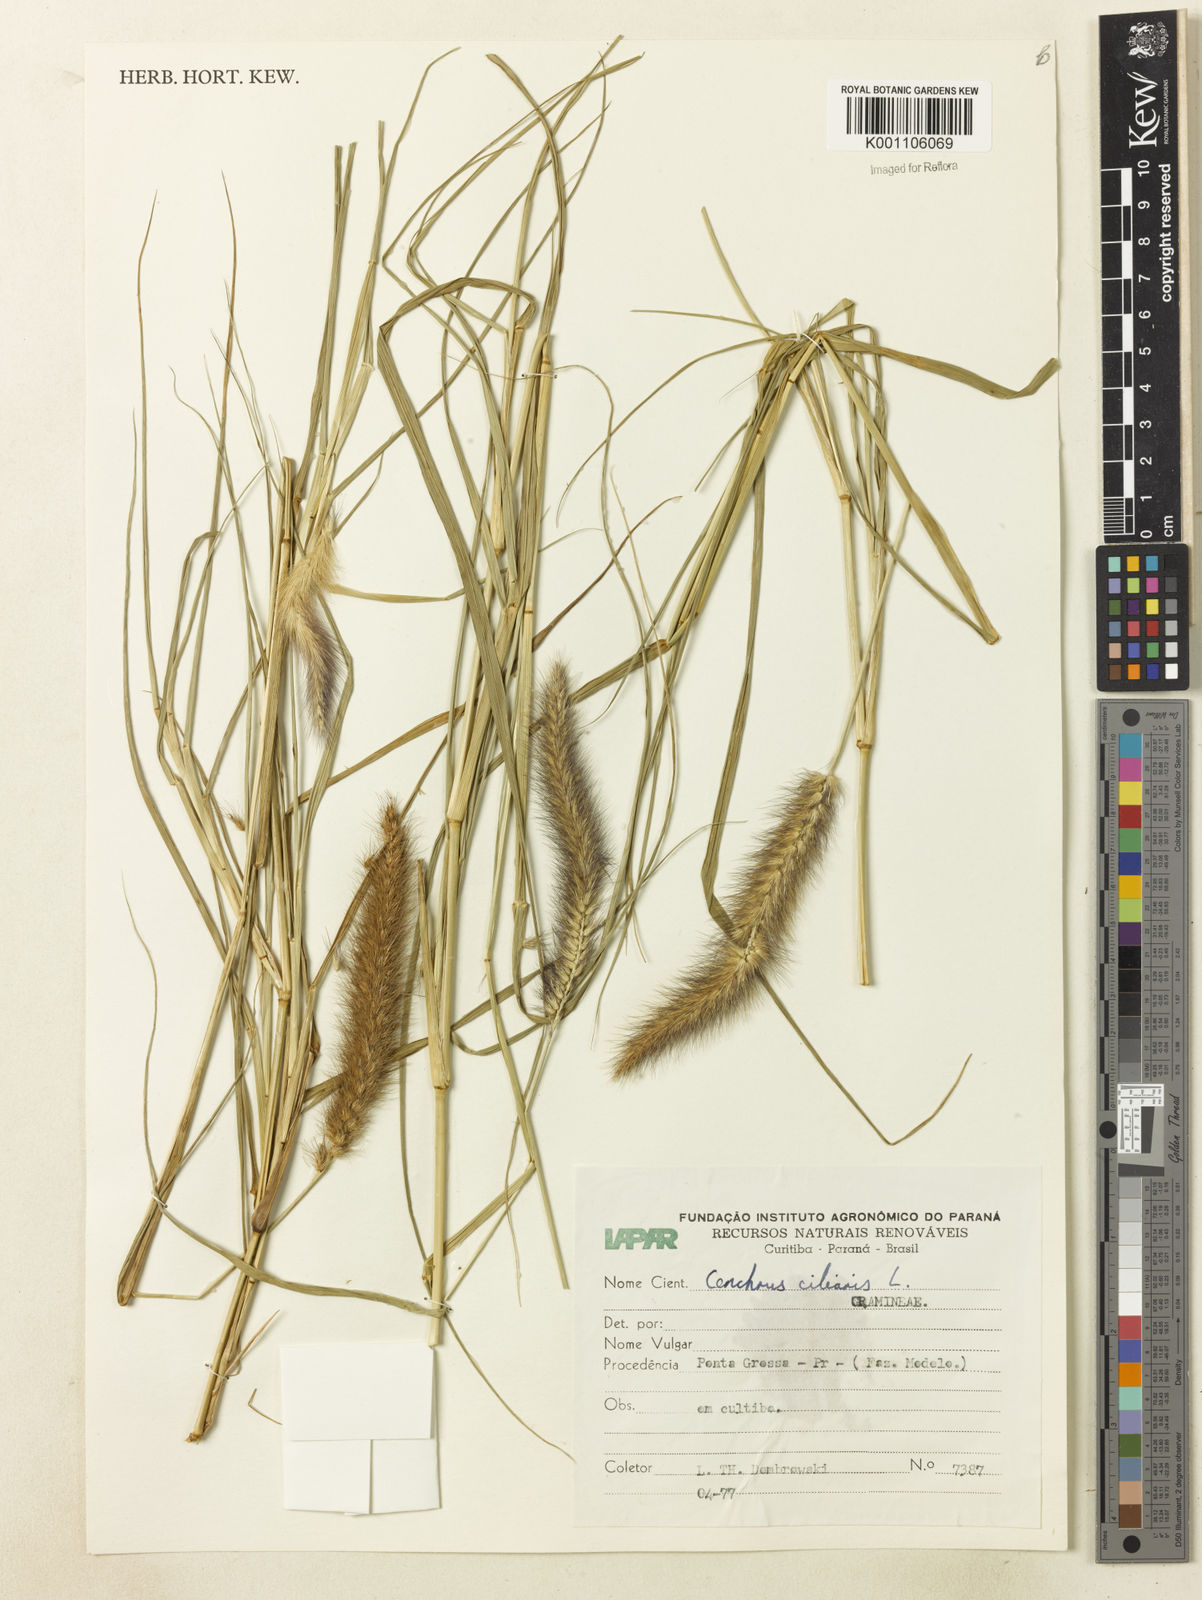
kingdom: Plantae
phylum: Tracheophyta
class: Liliopsida
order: Poales
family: Poaceae
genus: Cenchrus
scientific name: Cenchrus ciliaris
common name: Buffelgrass
